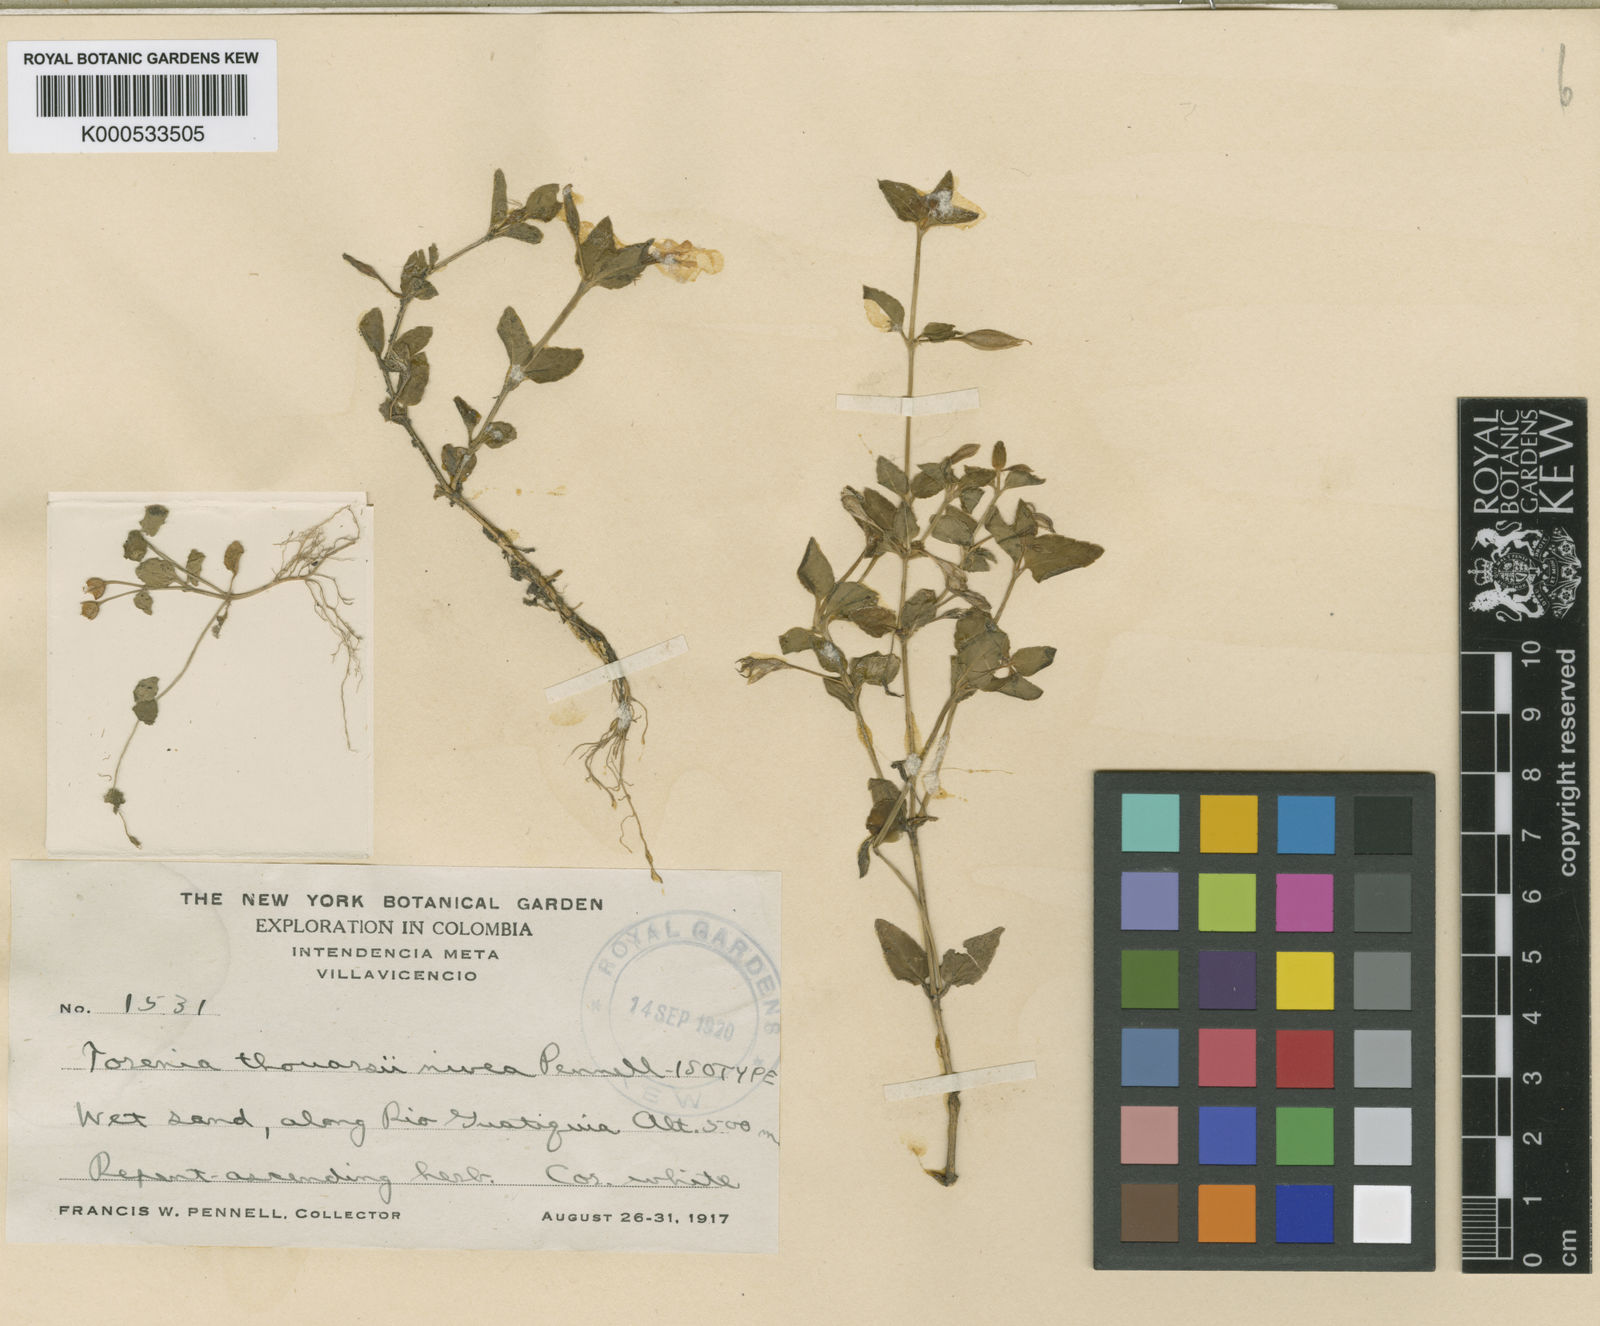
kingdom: Plantae
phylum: Tracheophyta
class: Magnoliopsida
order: Lamiales
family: Linderniaceae
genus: Torenia
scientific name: Torenia thouarsii
